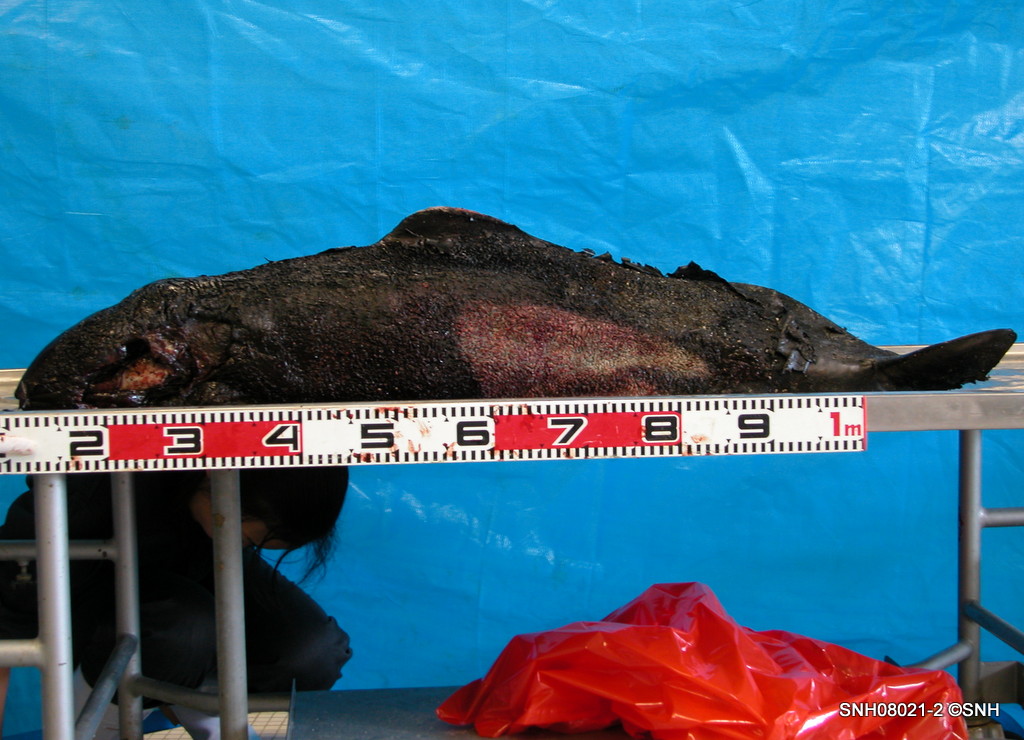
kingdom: Animalia
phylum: Chordata
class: Mammalia
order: Cetacea
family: Phocoenidae
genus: Phocoenoides
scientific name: Phocoenoides dalli
